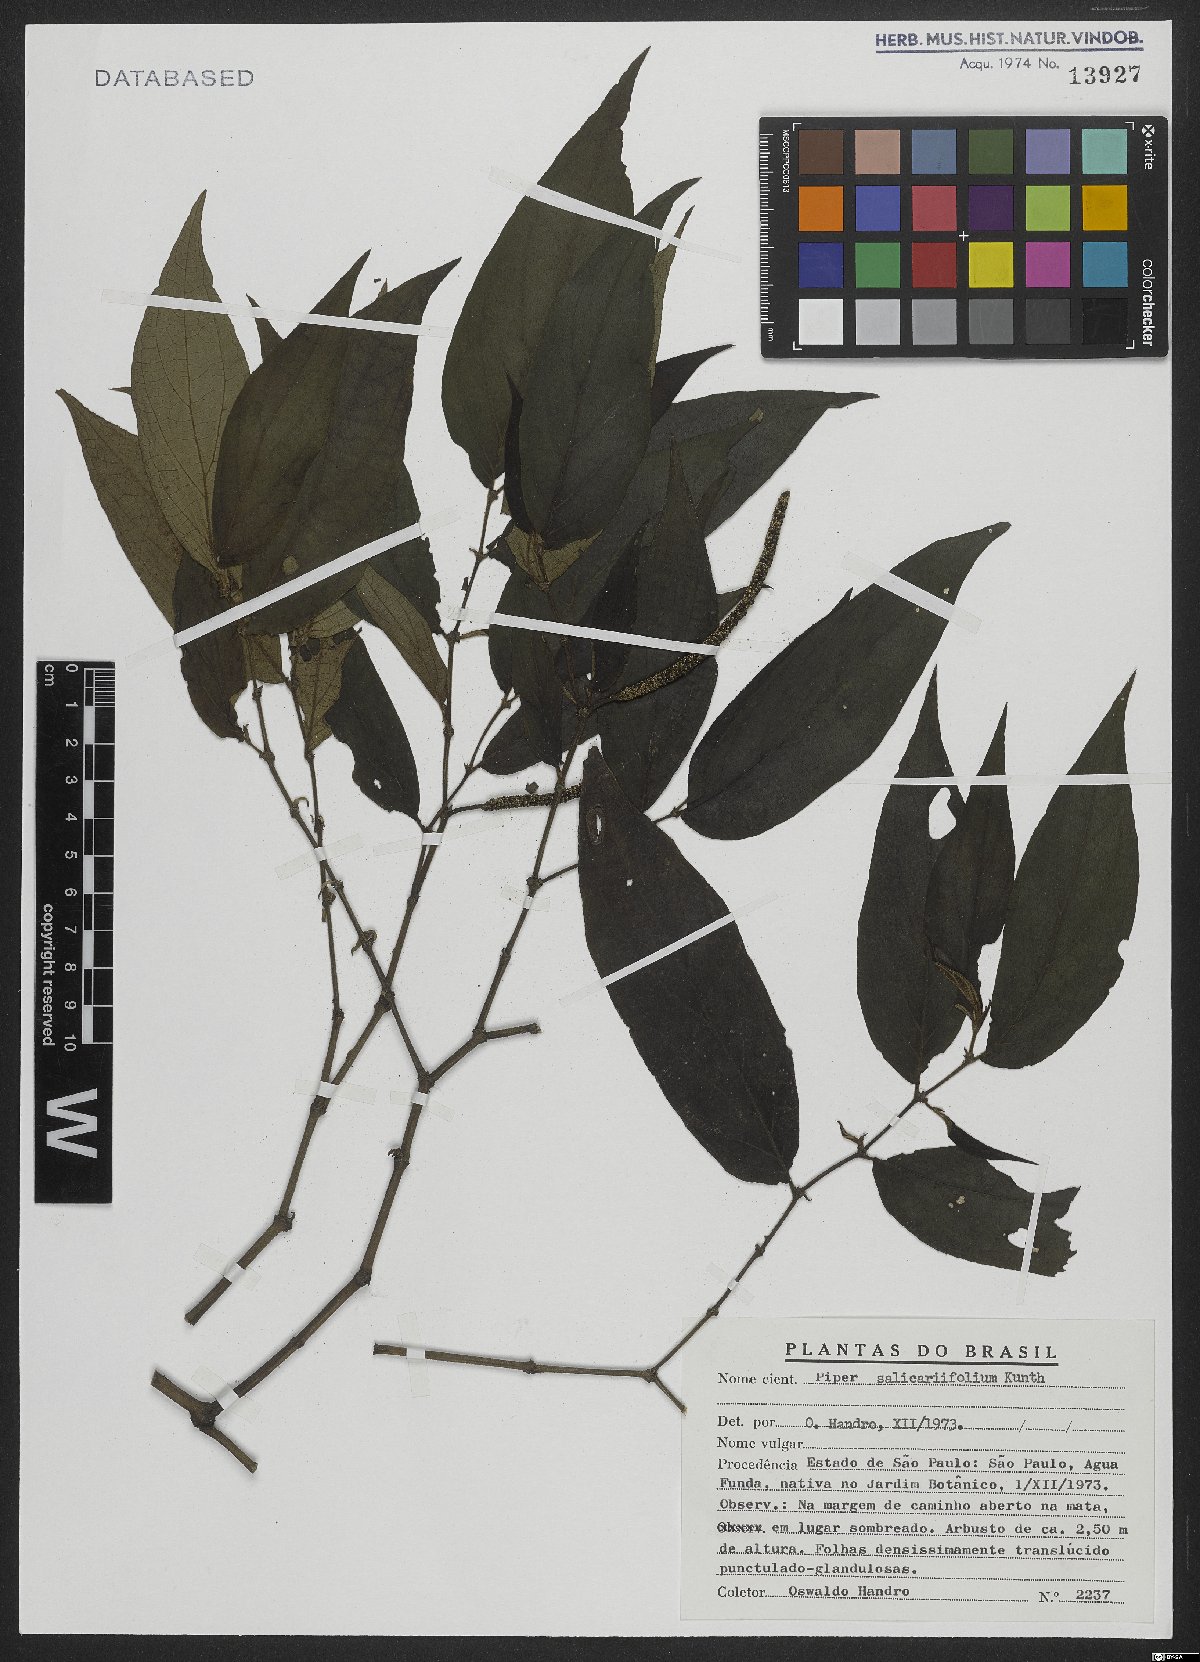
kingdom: Plantae
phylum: Tracheophyta
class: Magnoliopsida
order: Piperales
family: Piperaceae
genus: Piper
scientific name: Piper salicariifolium
